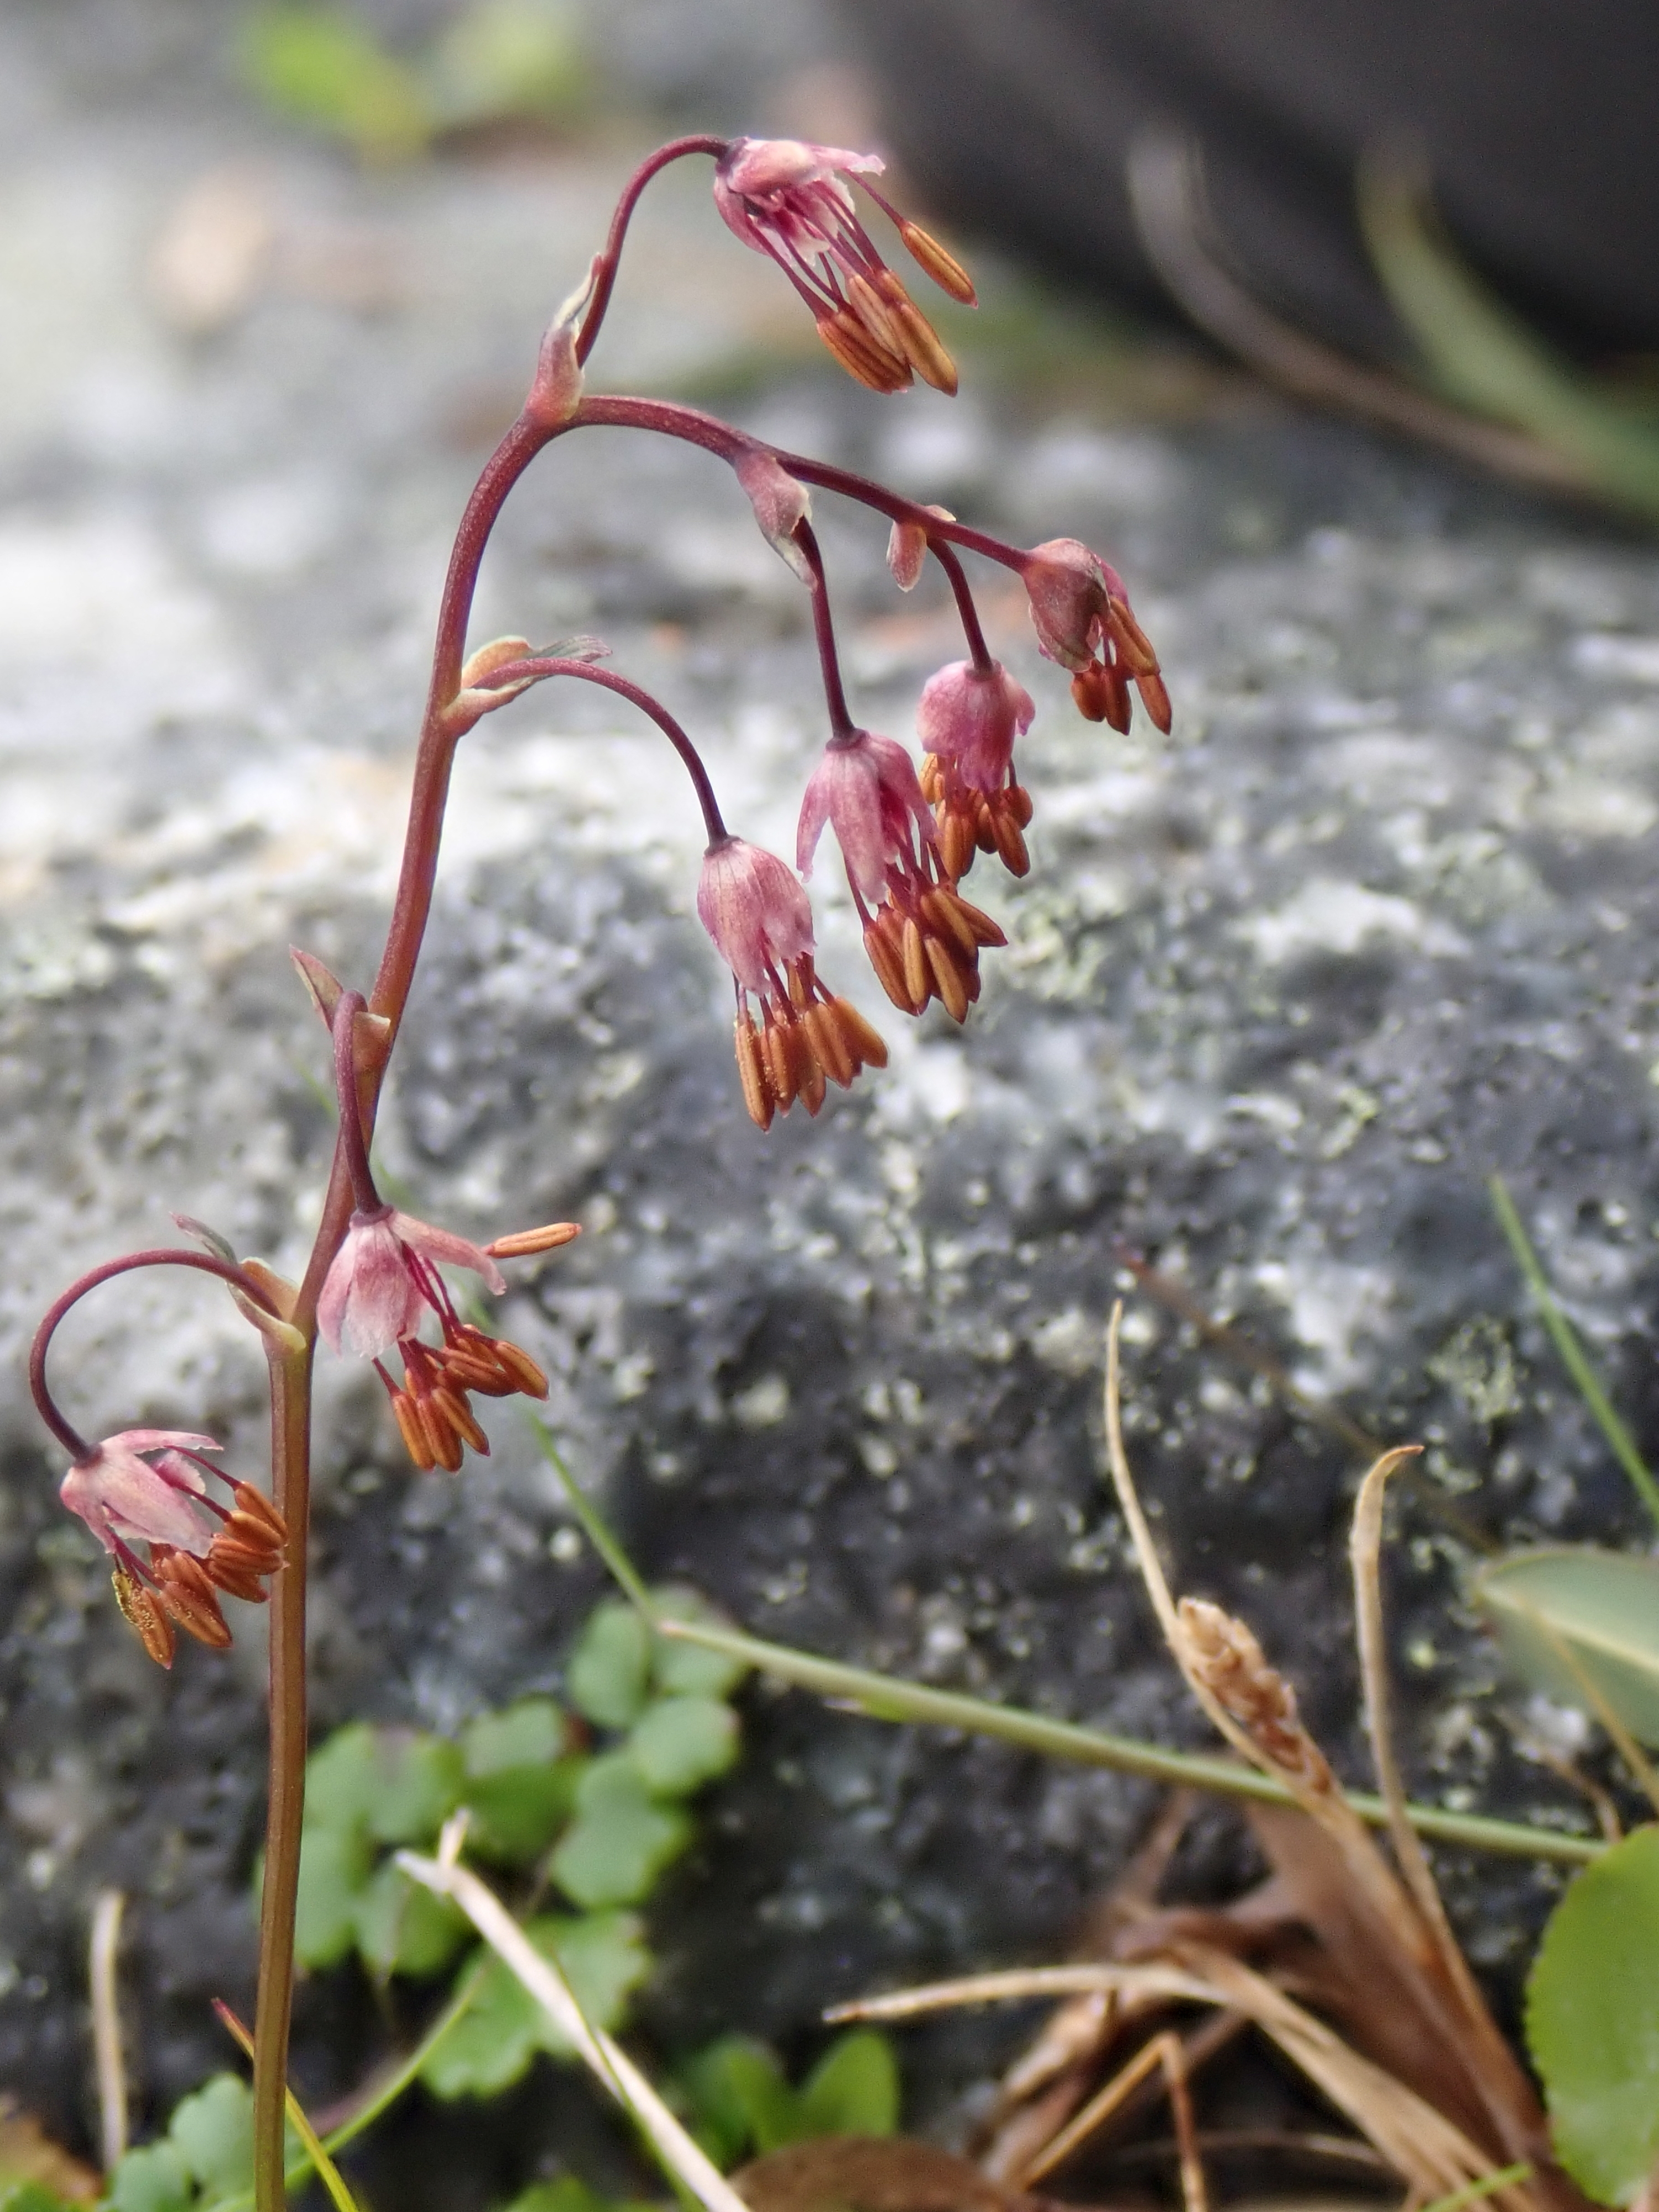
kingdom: Plantae
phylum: Tracheophyta
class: Magnoliopsida
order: Ranunculales
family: Ranunculaceae
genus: Thalictrum
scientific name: Thalictrum alpinum
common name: Alpine meadow-rue
